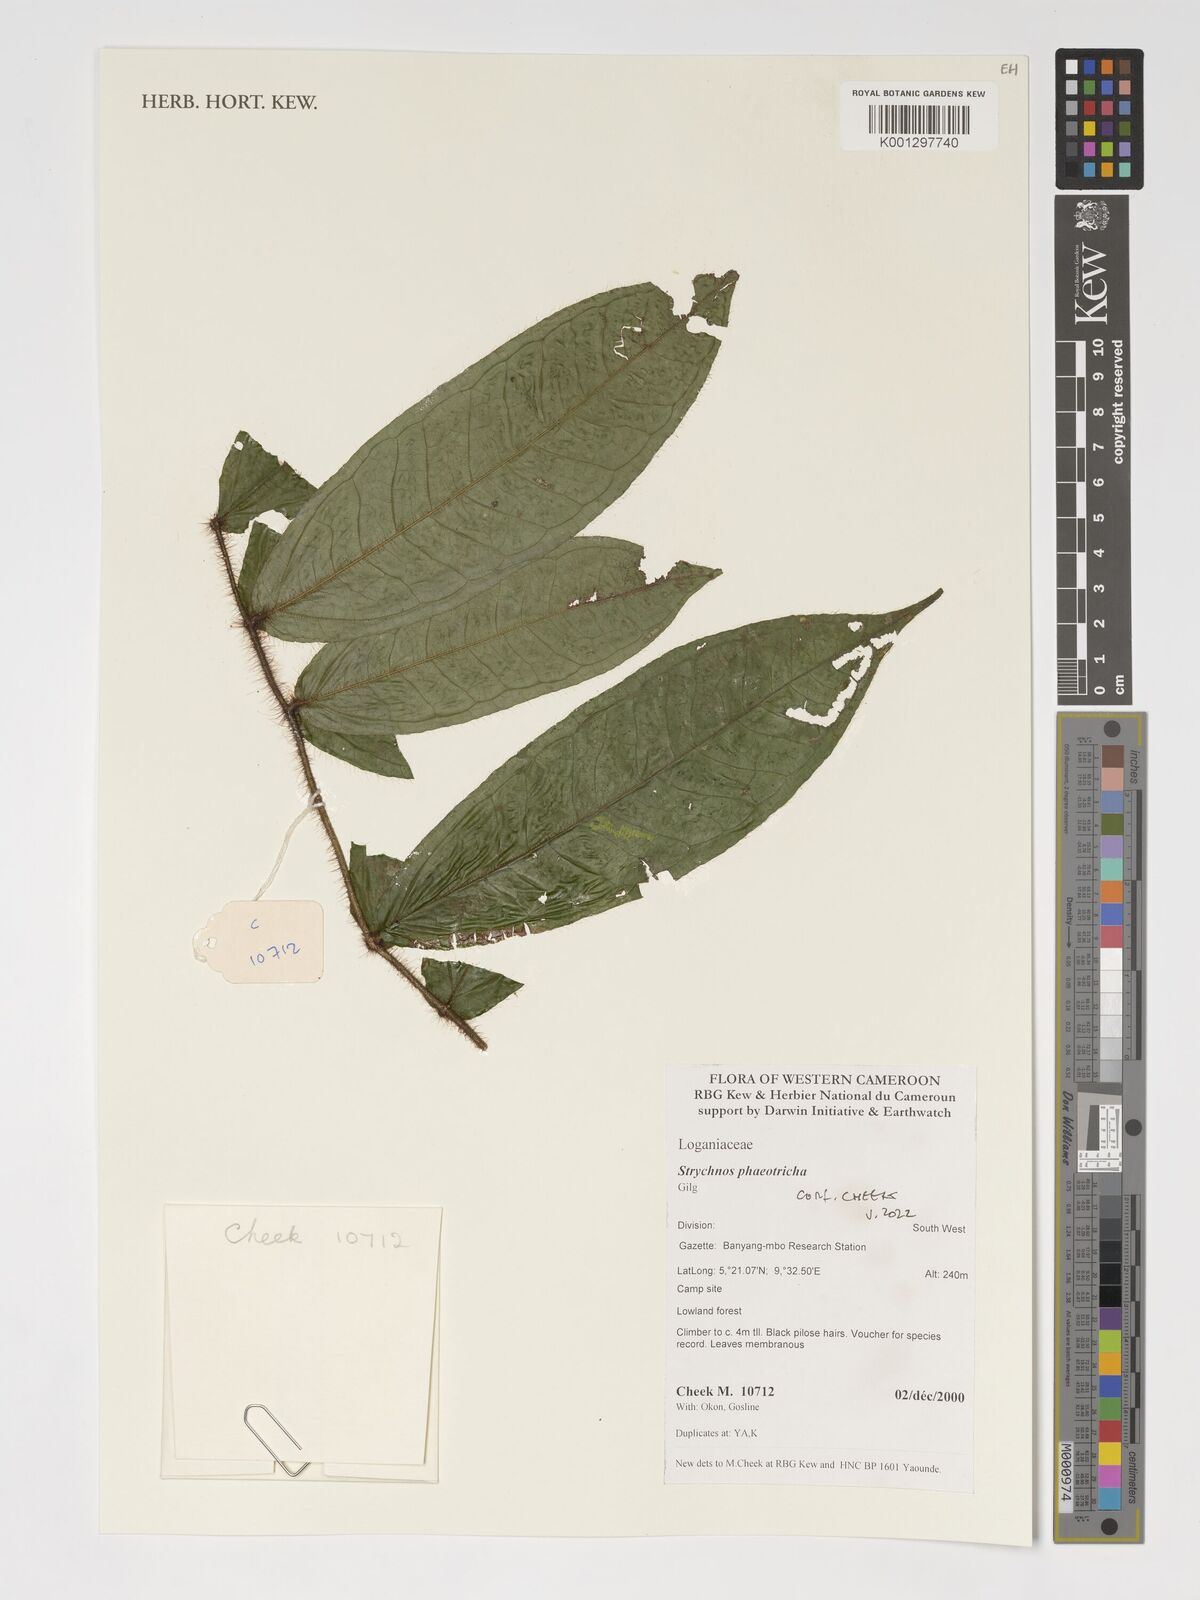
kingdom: Plantae
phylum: Tracheophyta
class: Magnoliopsida
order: Gentianales
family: Loganiaceae
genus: Strychnos
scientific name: Strychnos phaeotricha
